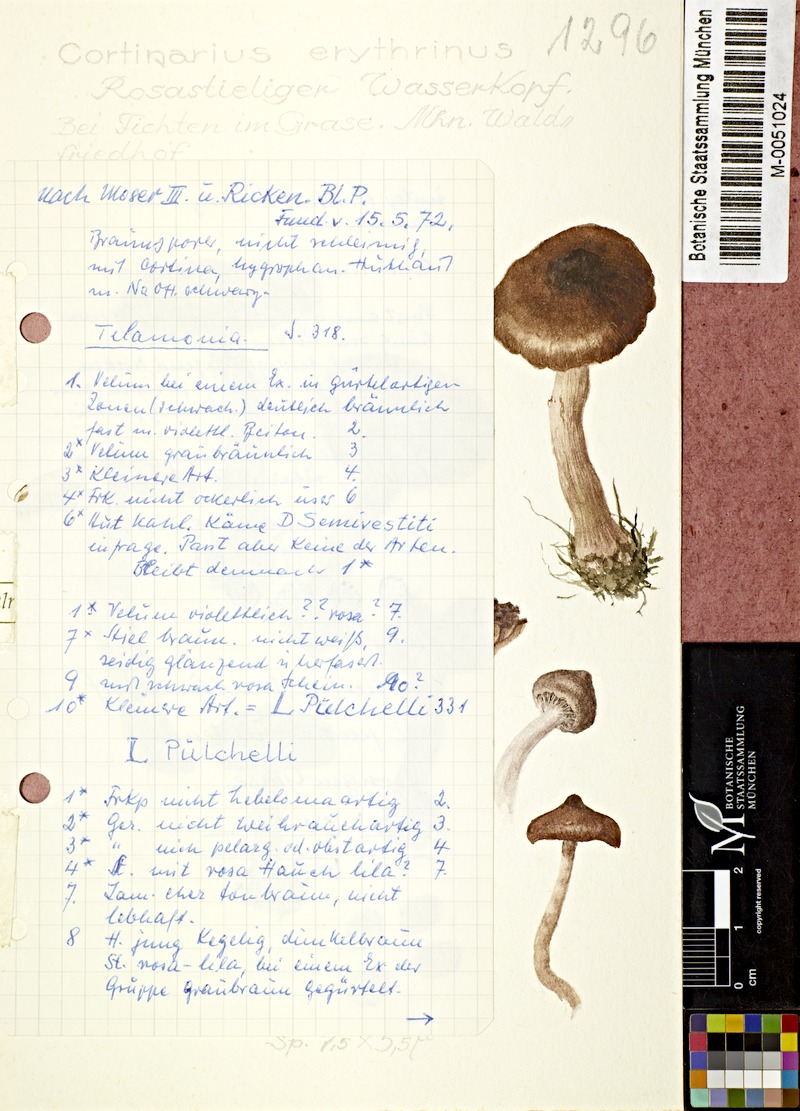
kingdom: Fungi
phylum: Basidiomycota
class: Agaricomycetes
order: Agaricales
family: Cortinariaceae
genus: Cortinarius
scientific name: Cortinarius erythrinus
